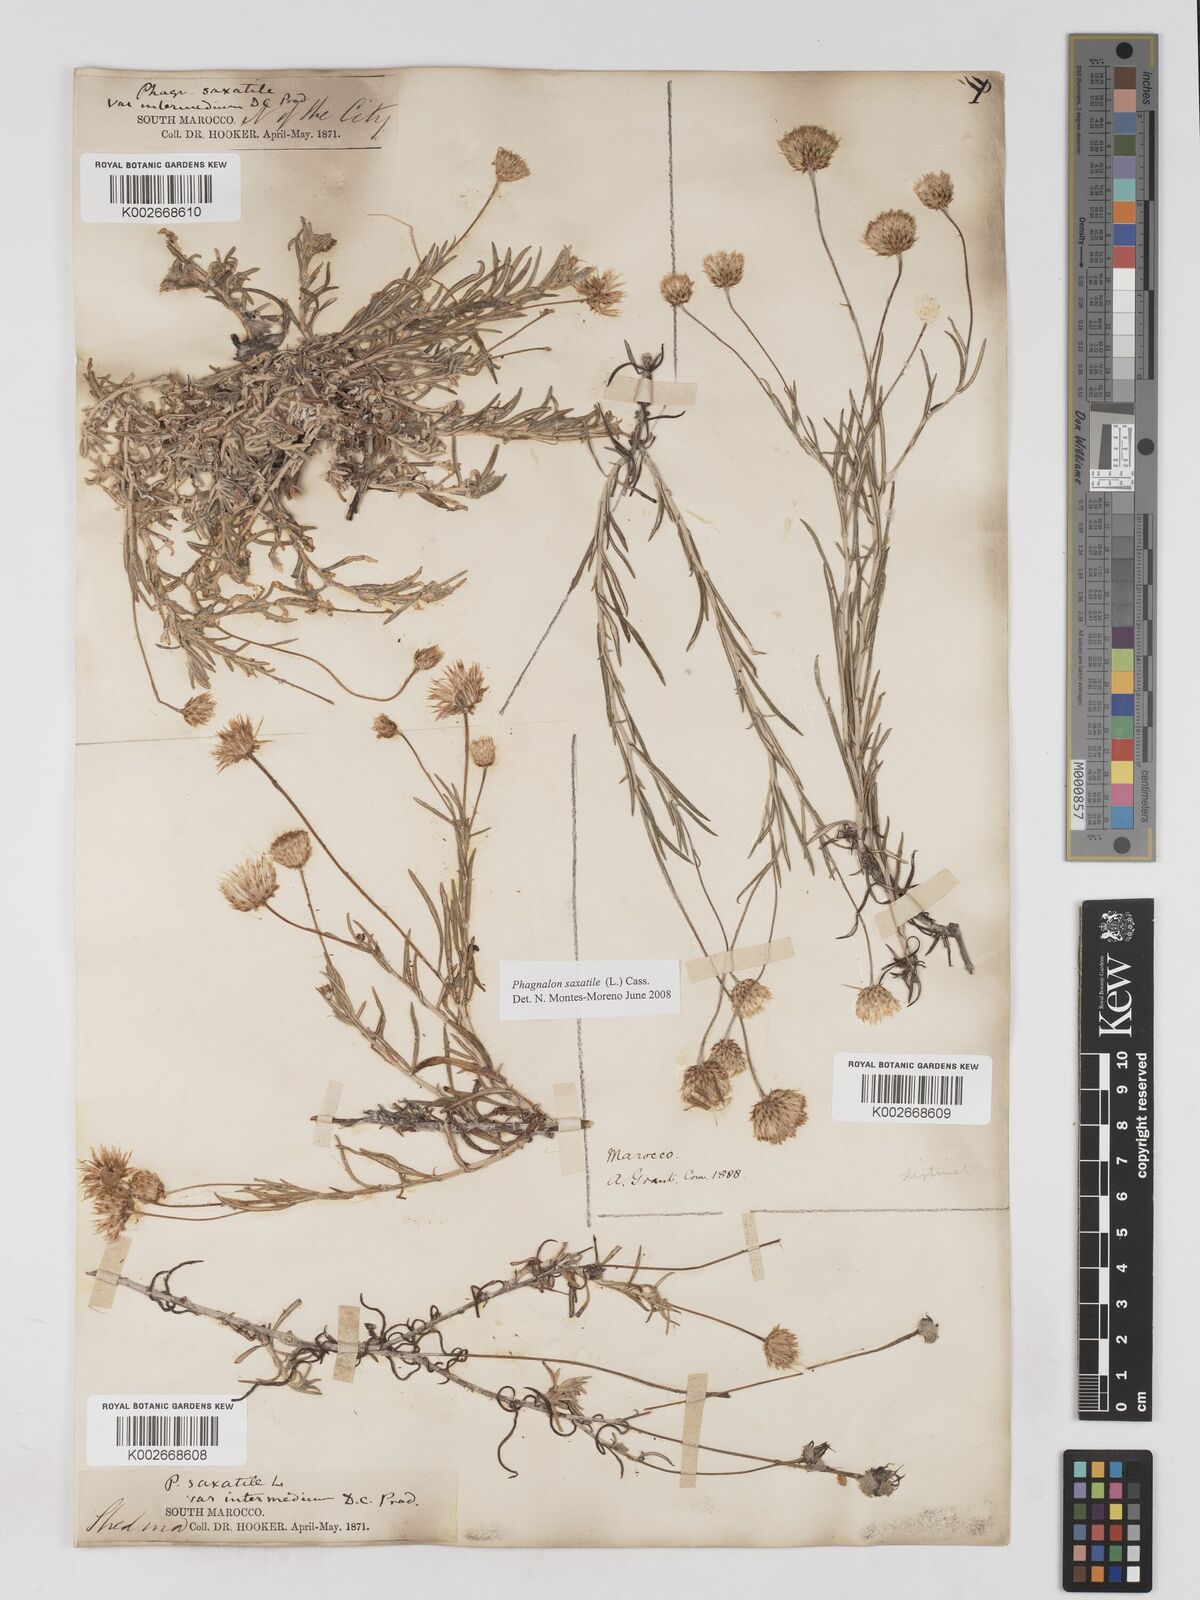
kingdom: Plantae
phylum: Tracheophyta
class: Magnoliopsida
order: Asterales
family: Asteraceae
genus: Phagnalon
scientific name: Phagnalon saxatile
